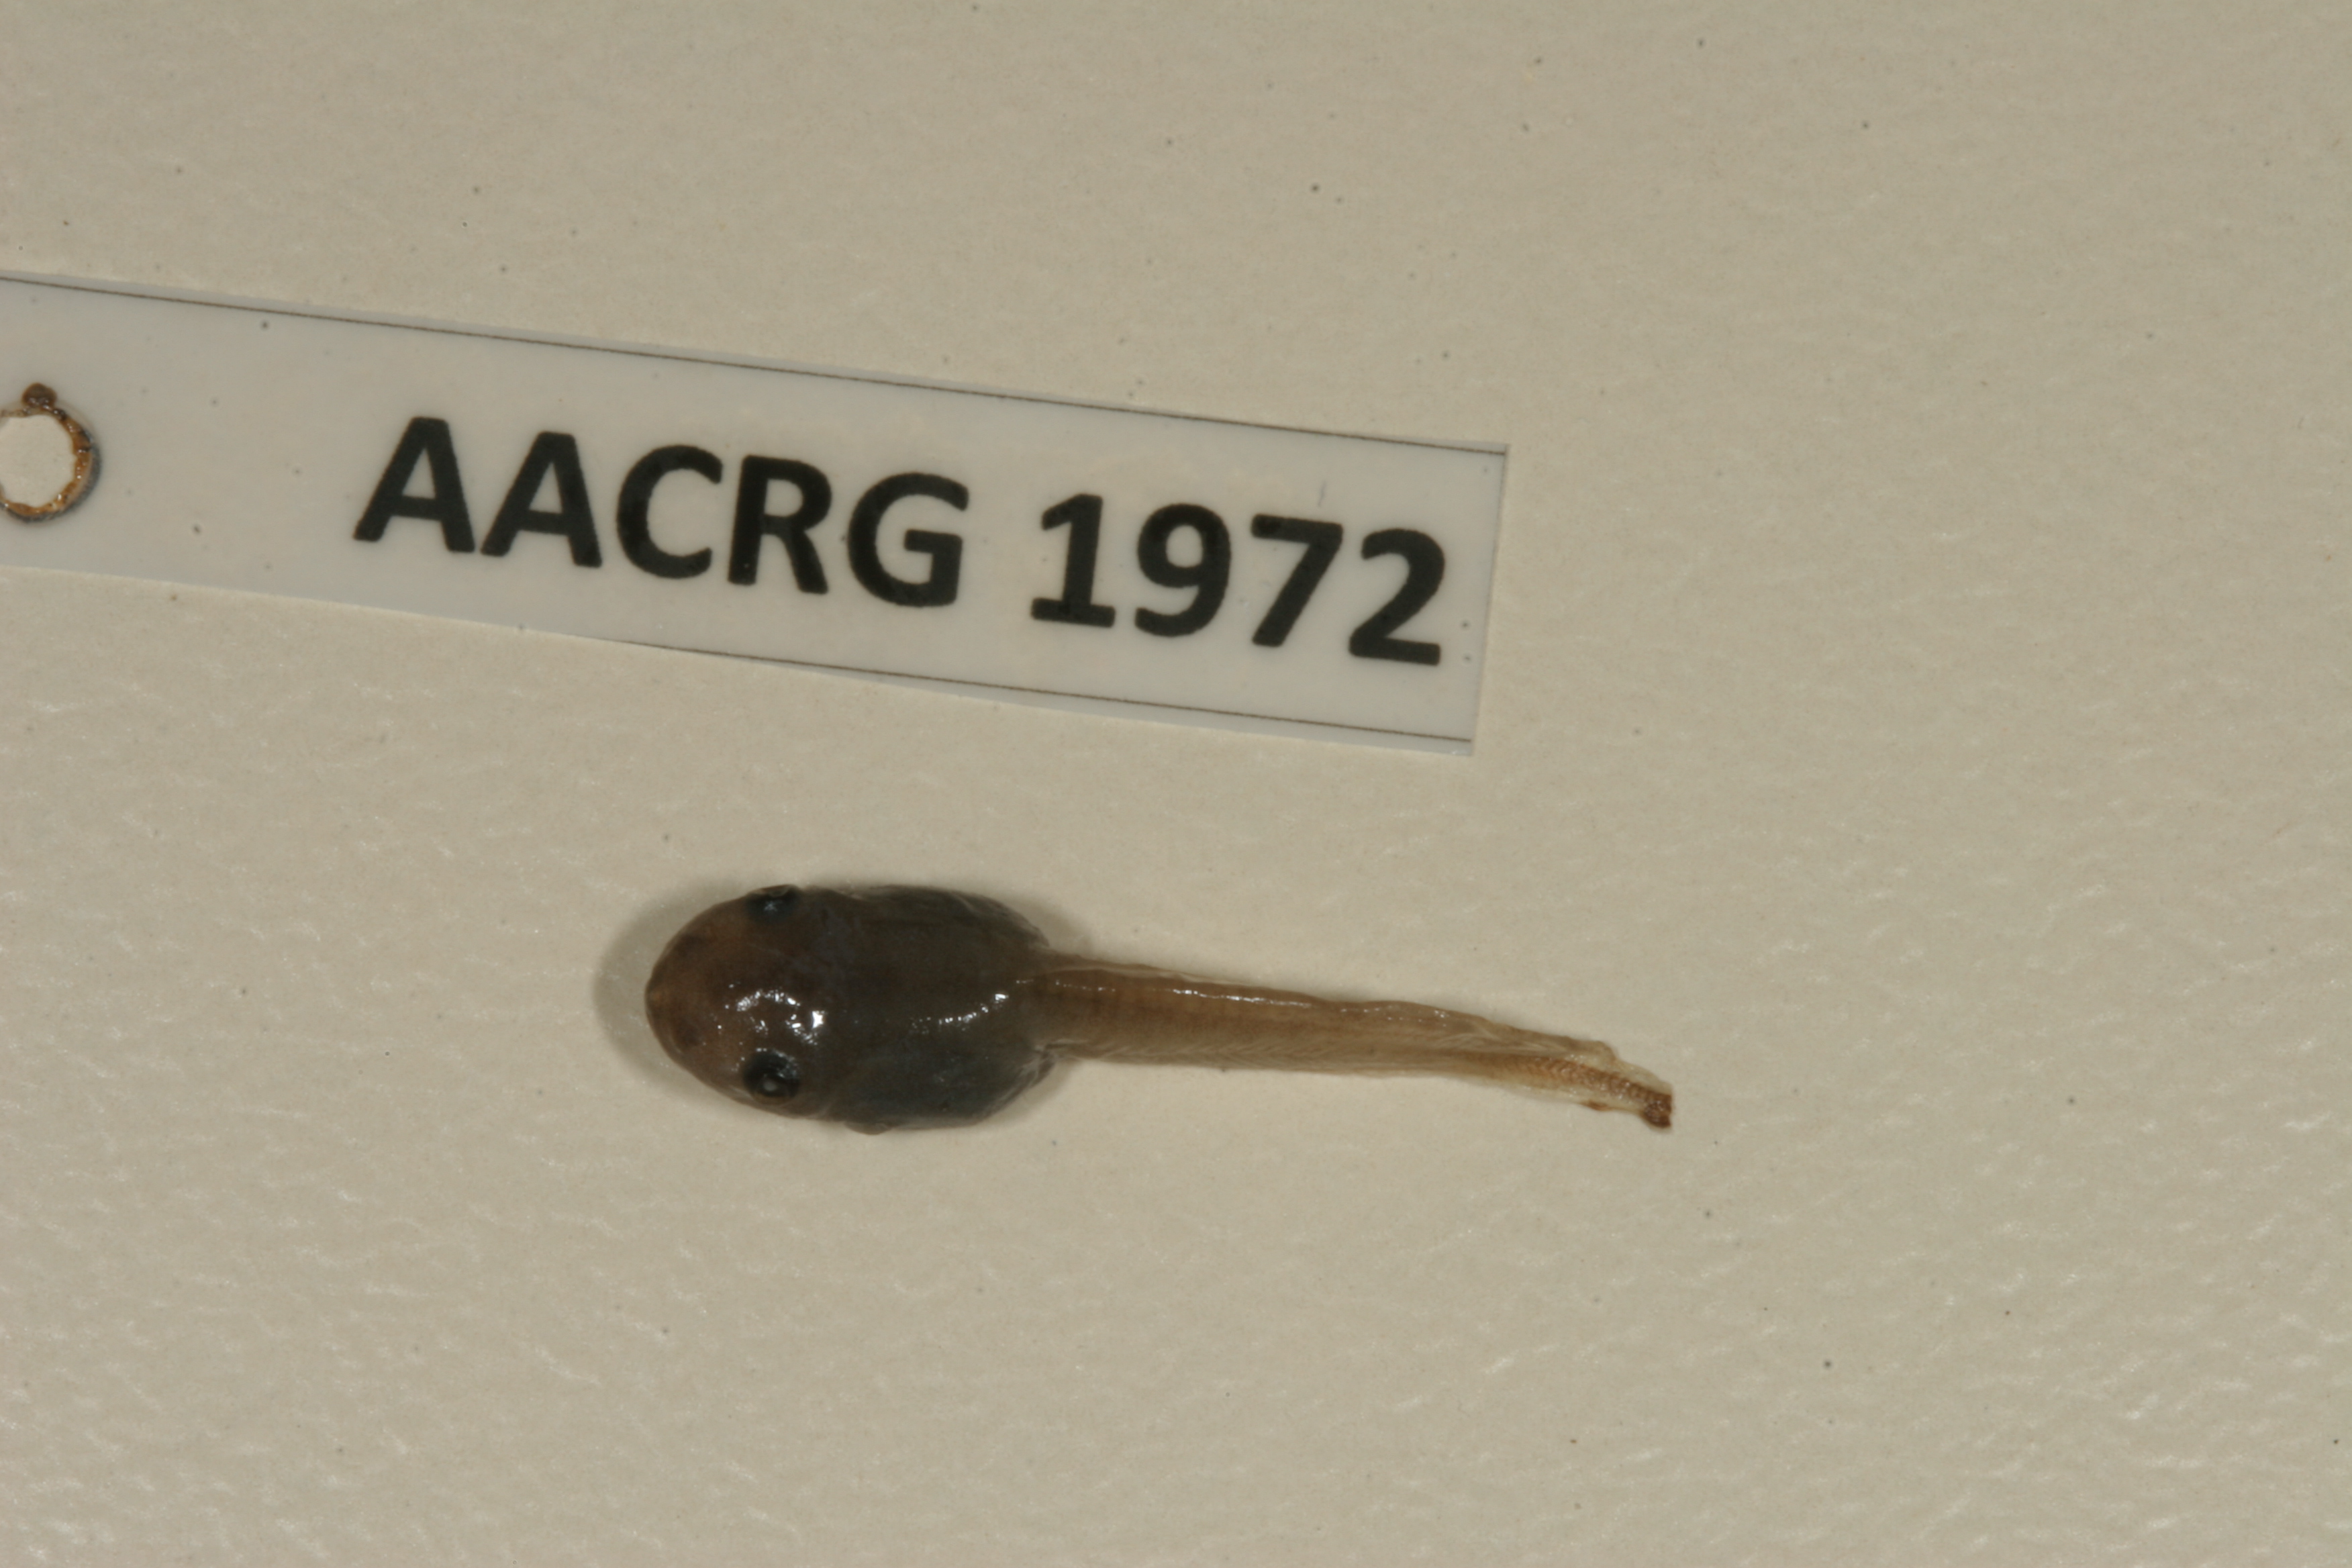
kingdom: Animalia
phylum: Chordata
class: Amphibia
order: Anura
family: Hemisotidae
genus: Hemisus
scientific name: Hemisus marmoratus
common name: Mottled shovel-nosed frog
